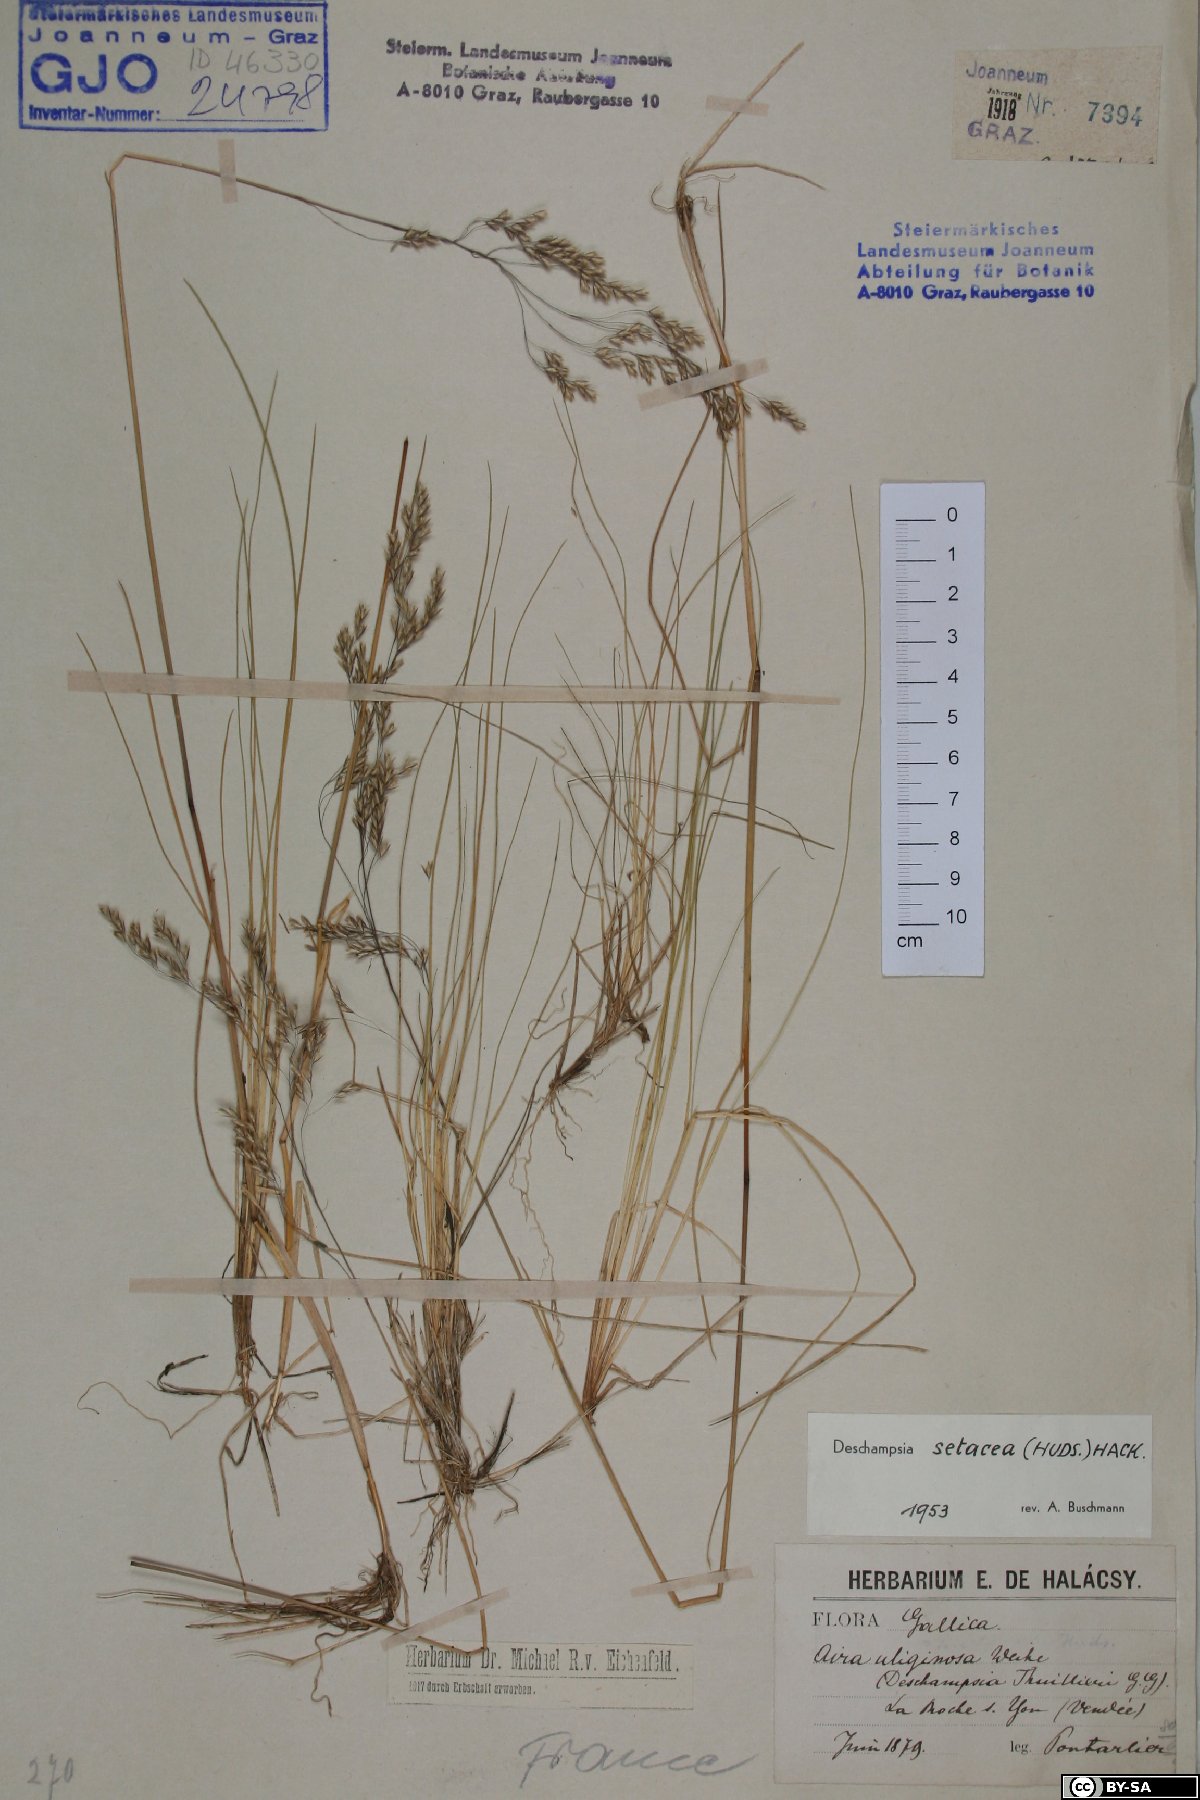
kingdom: Plantae
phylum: Tracheophyta
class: Liliopsida
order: Poales
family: Poaceae
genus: Deschampsia
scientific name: Deschampsia setacea
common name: Bog hair-grass
